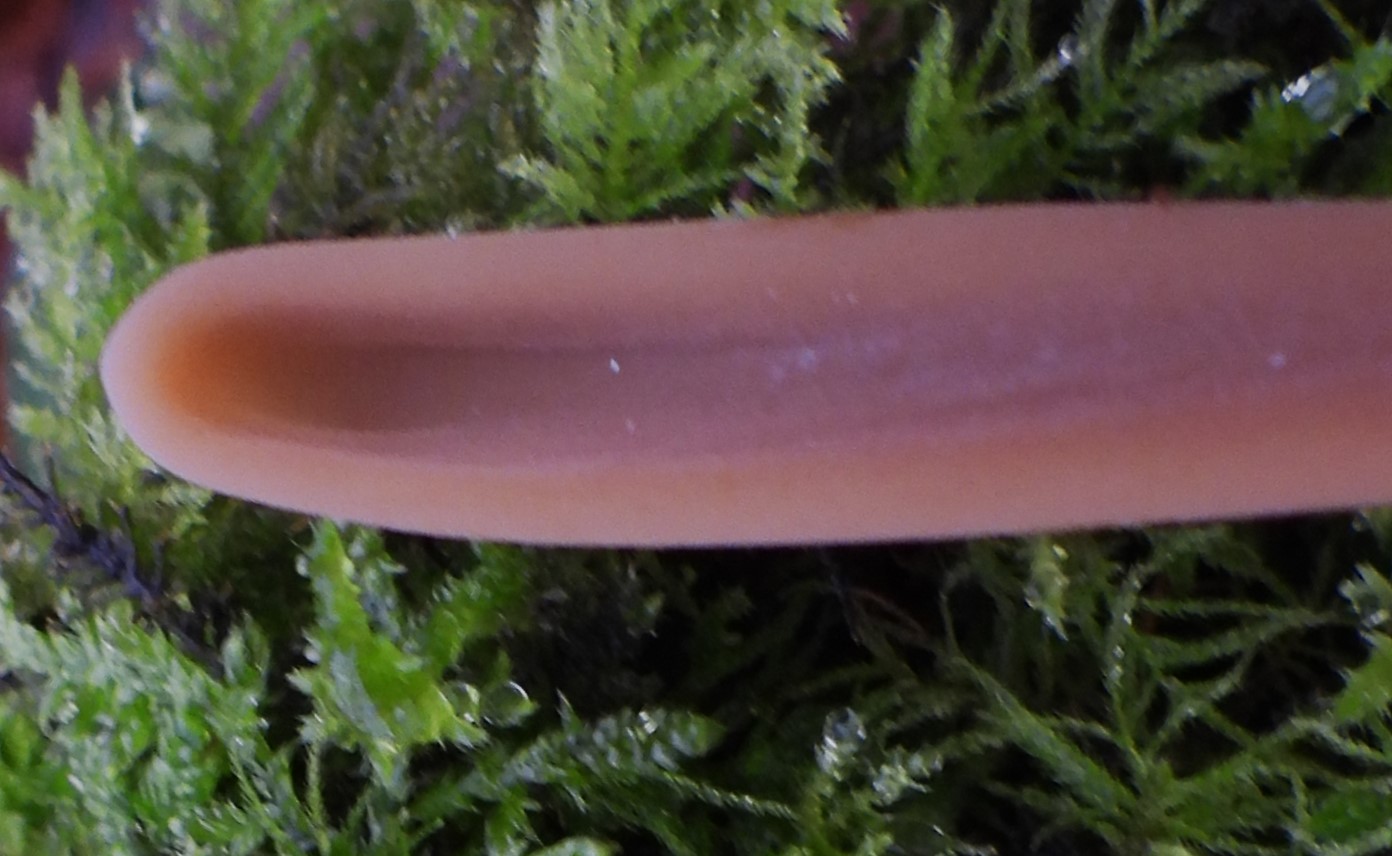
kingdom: Fungi
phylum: Basidiomycota
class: Agaricomycetes
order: Agaricales
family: Typhulaceae
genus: Typhula
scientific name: Typhula fistulosa
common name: pibet rørkølle
